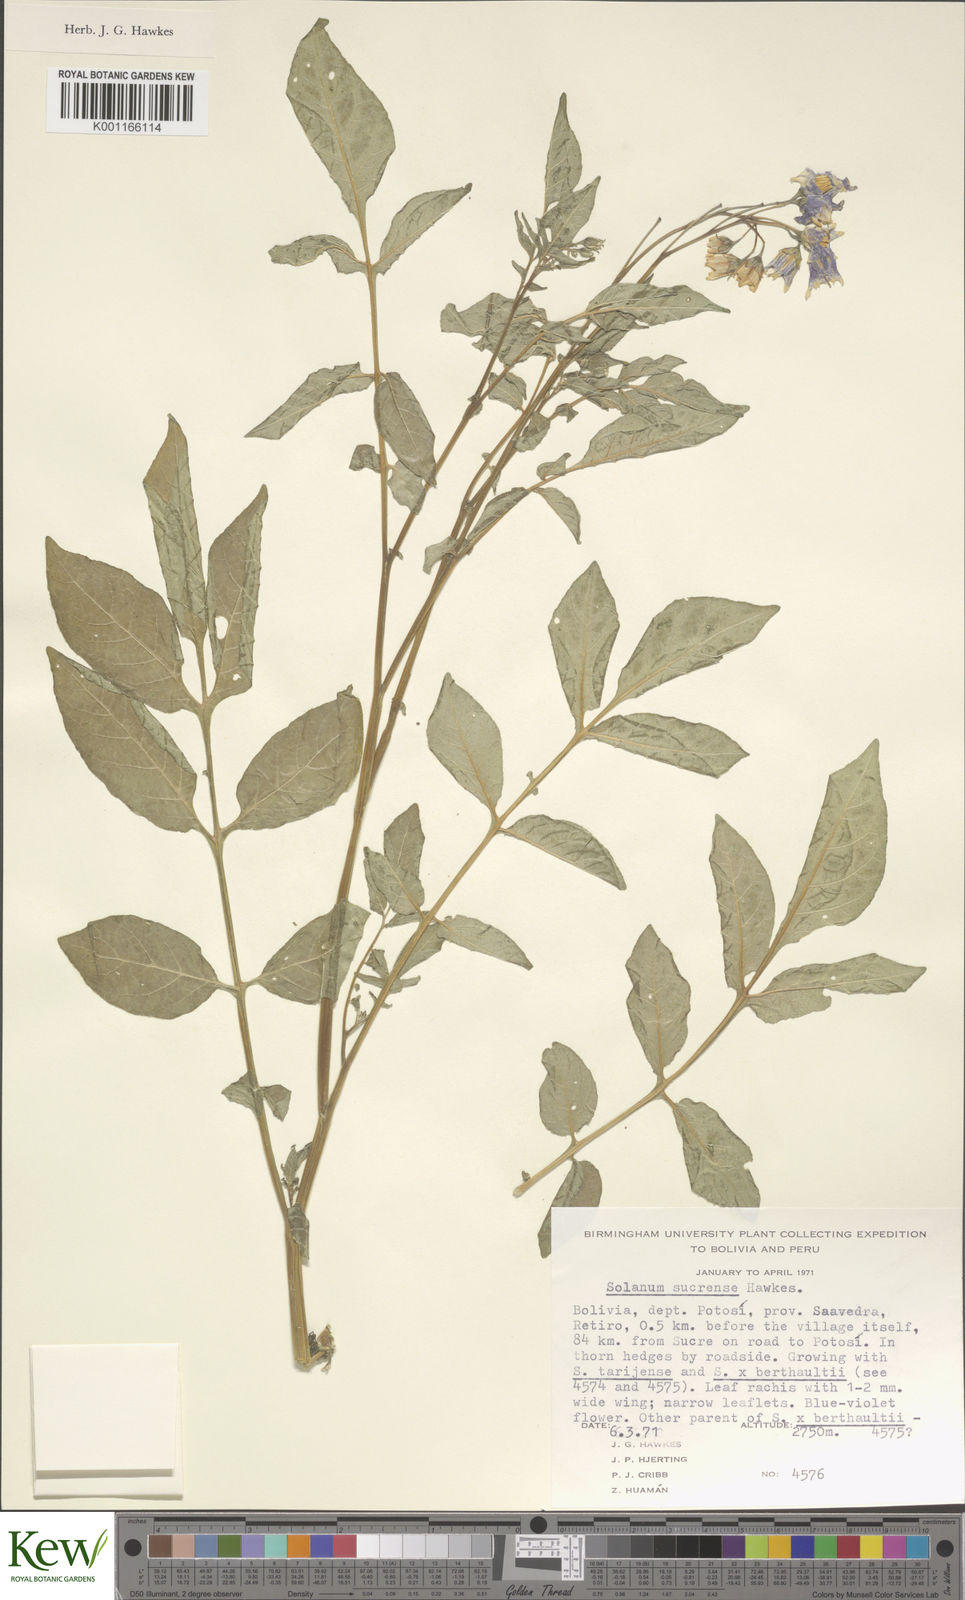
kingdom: Plantae
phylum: Tracheophyta
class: Magnoliopsida
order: Solanales
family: Solanaceae
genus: Solanum
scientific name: Solanum brevicaule
